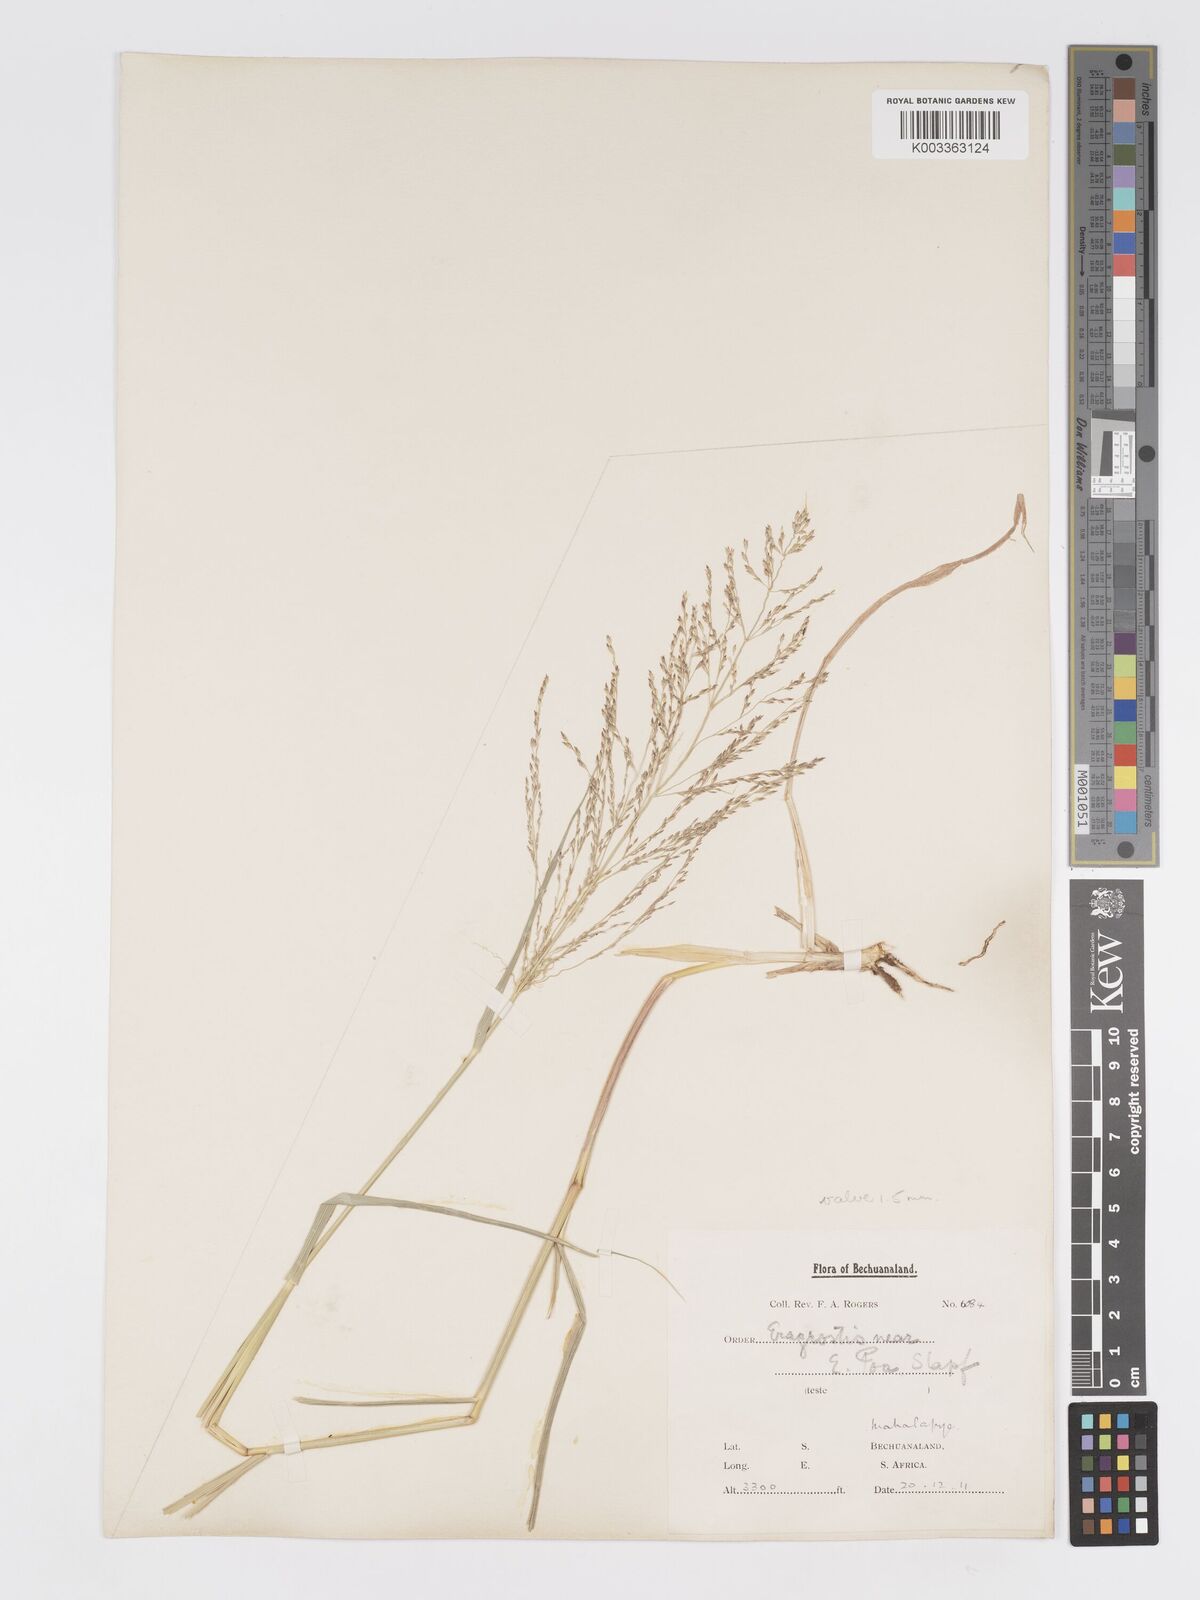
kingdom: Plantae
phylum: Tracheophyta
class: Liliopsida
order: Poales
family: Poaceae
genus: Eragrostis
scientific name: Eragrostis cylindriflora
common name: Cylinderflower lovegrass
